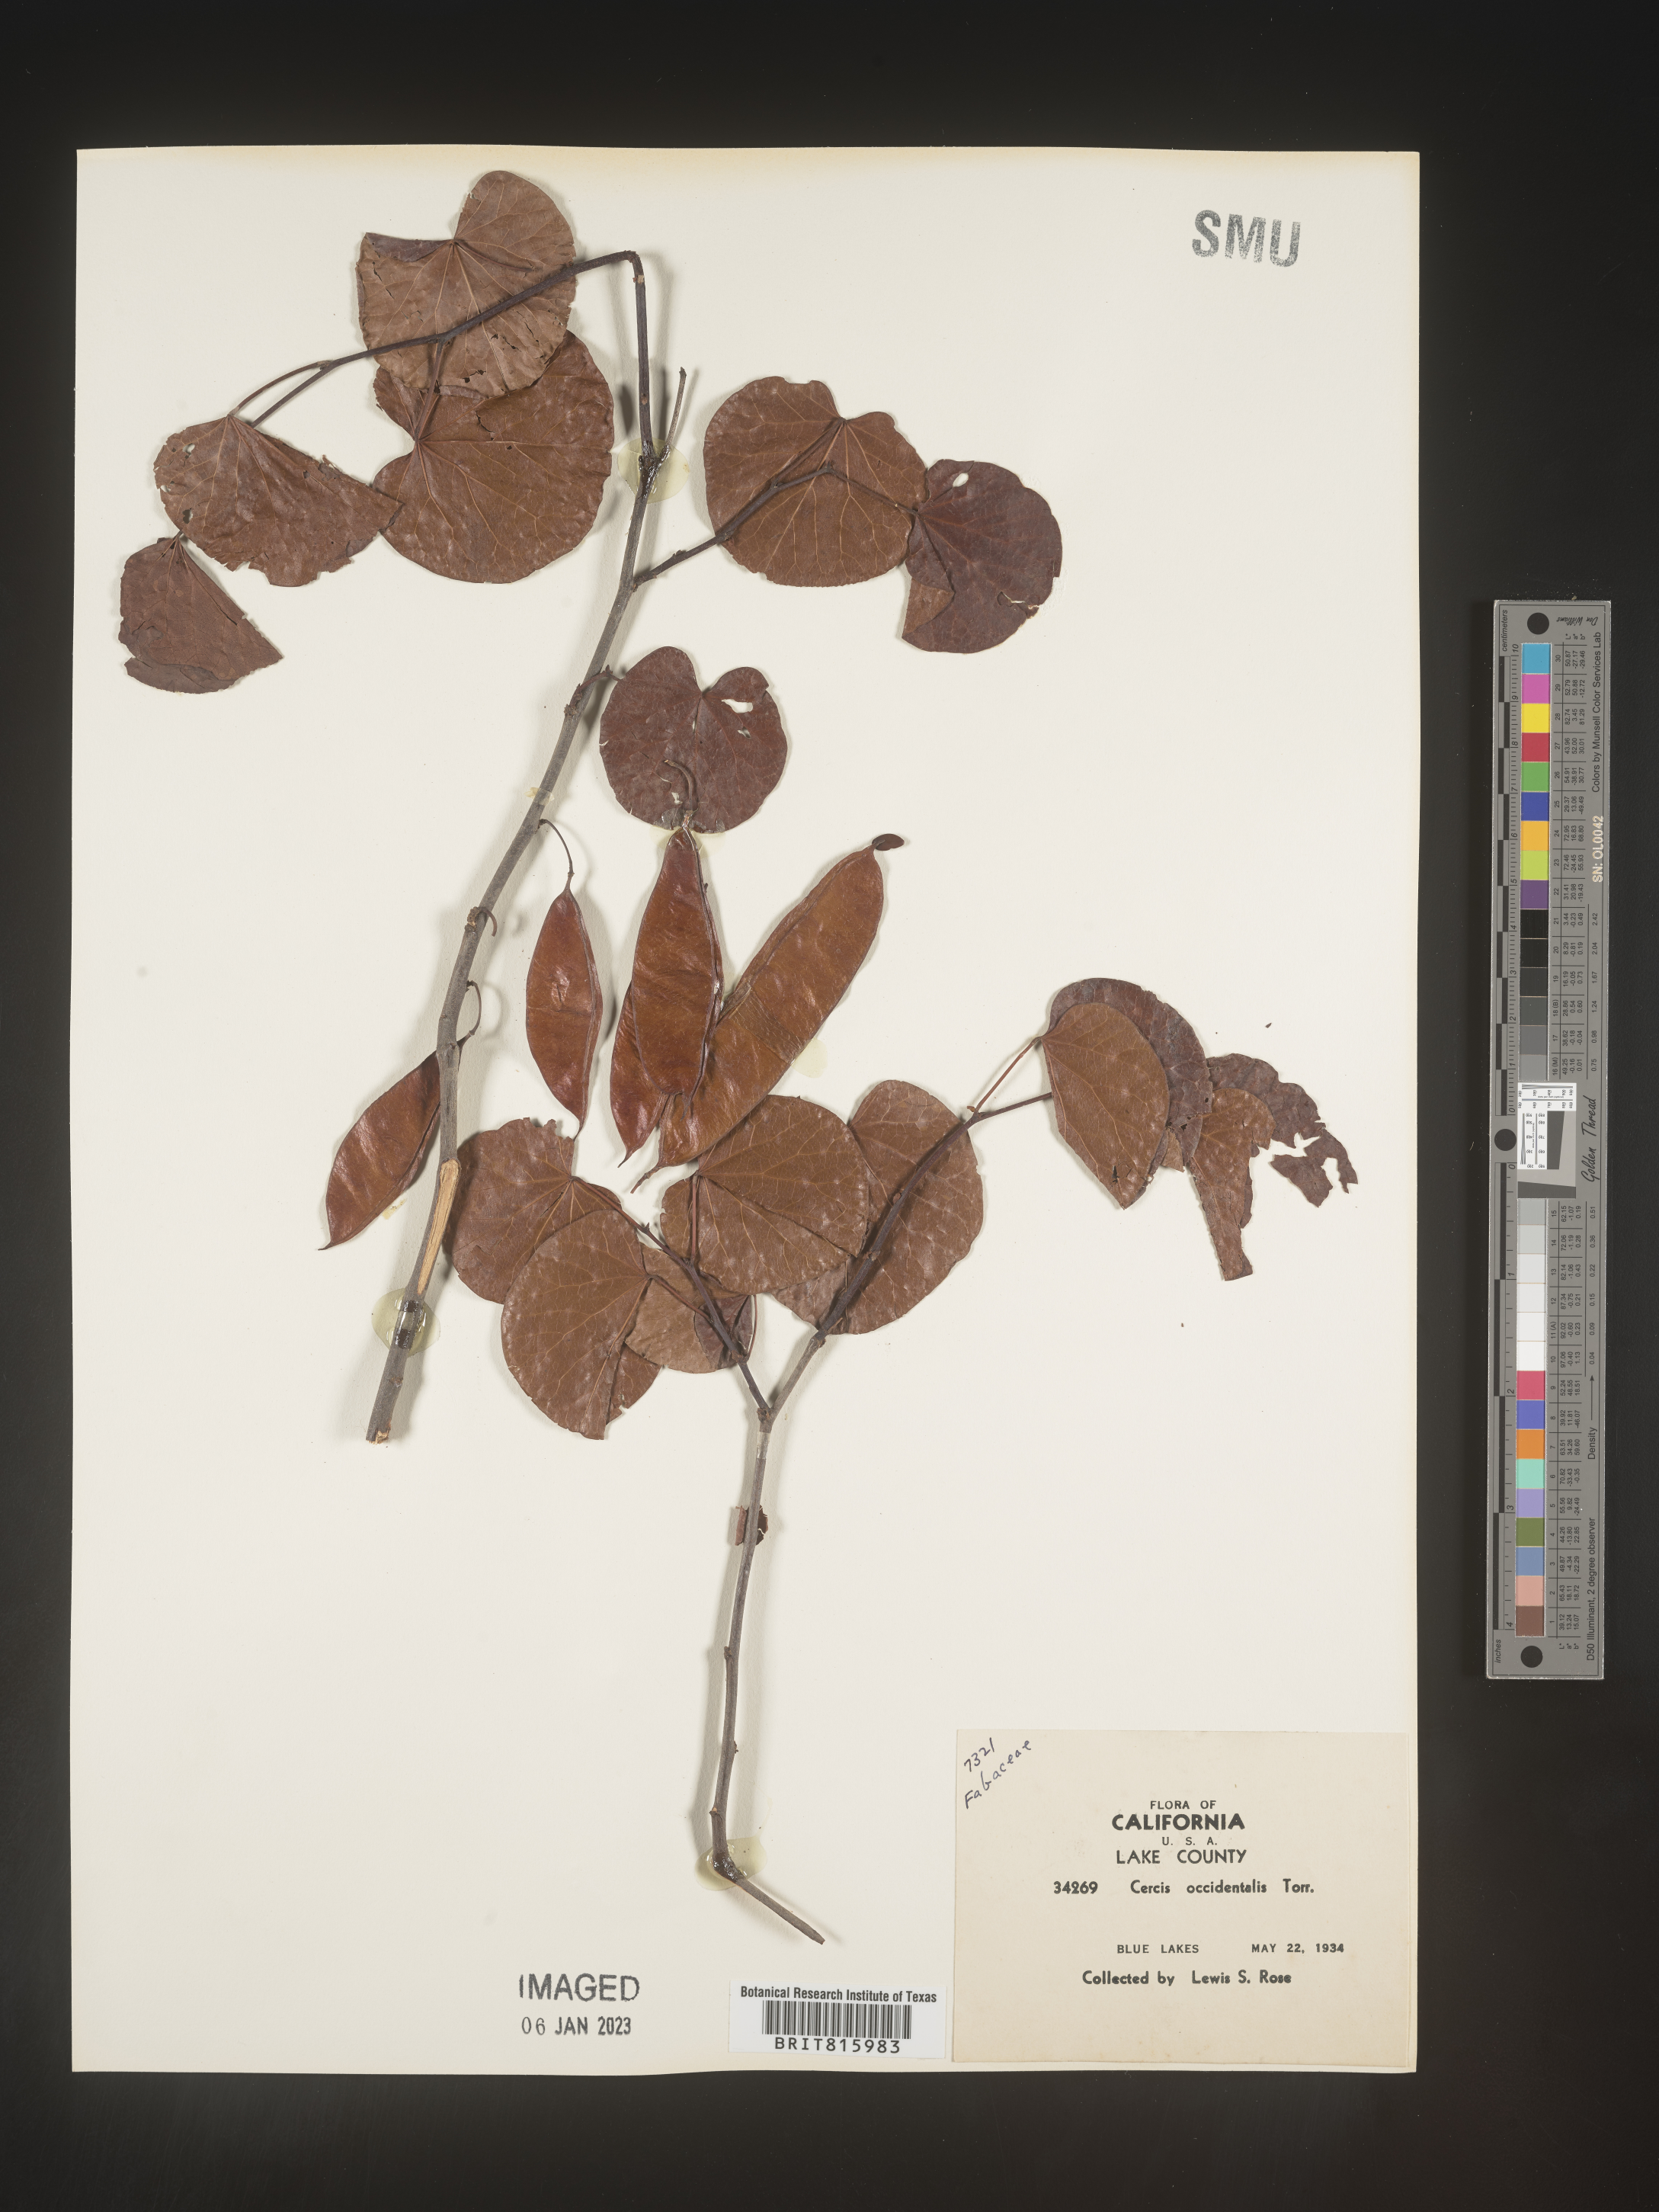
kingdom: Plantae
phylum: Tracheophyta
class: Magnoliopsida
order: Fabales
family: Fabaceae
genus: Cercis
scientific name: Cercis occidentalis
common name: California redbud
